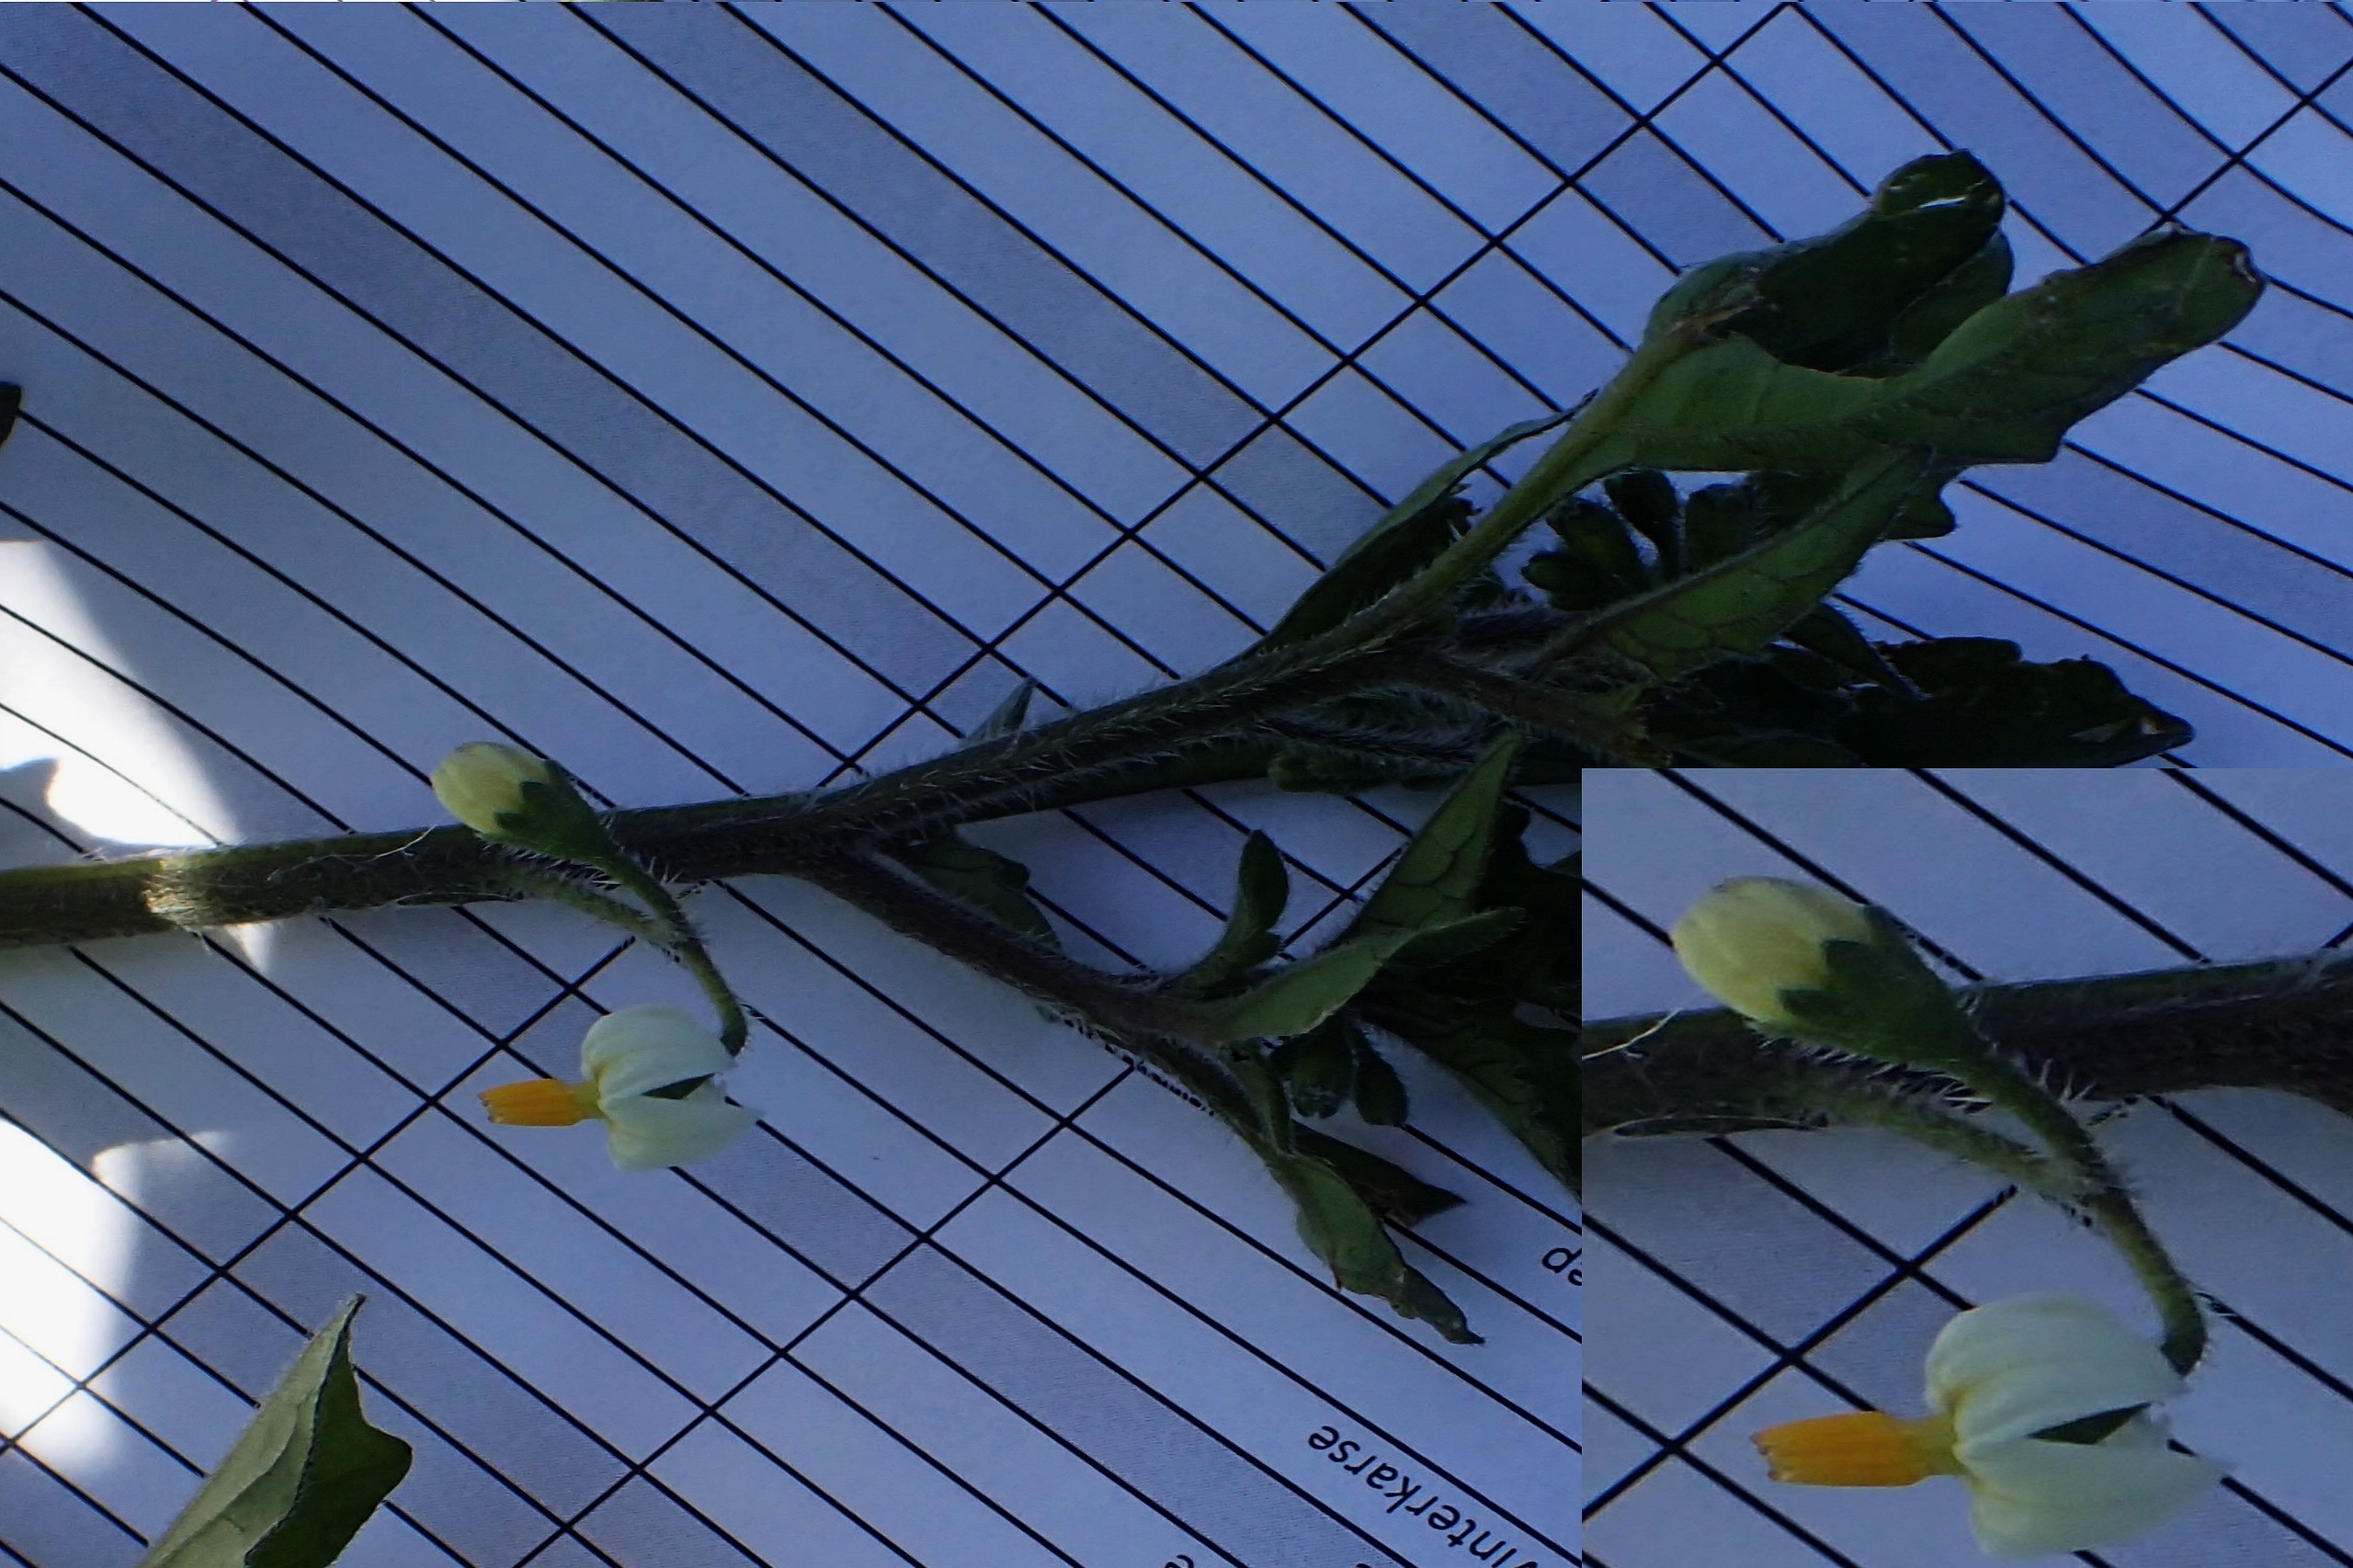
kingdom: Plantae
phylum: Tracheophyta
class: Magnoliopsida
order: Solanales
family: Solanaceae
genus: Solanum
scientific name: Solanum decipiens
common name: Kirtel-natskygge
